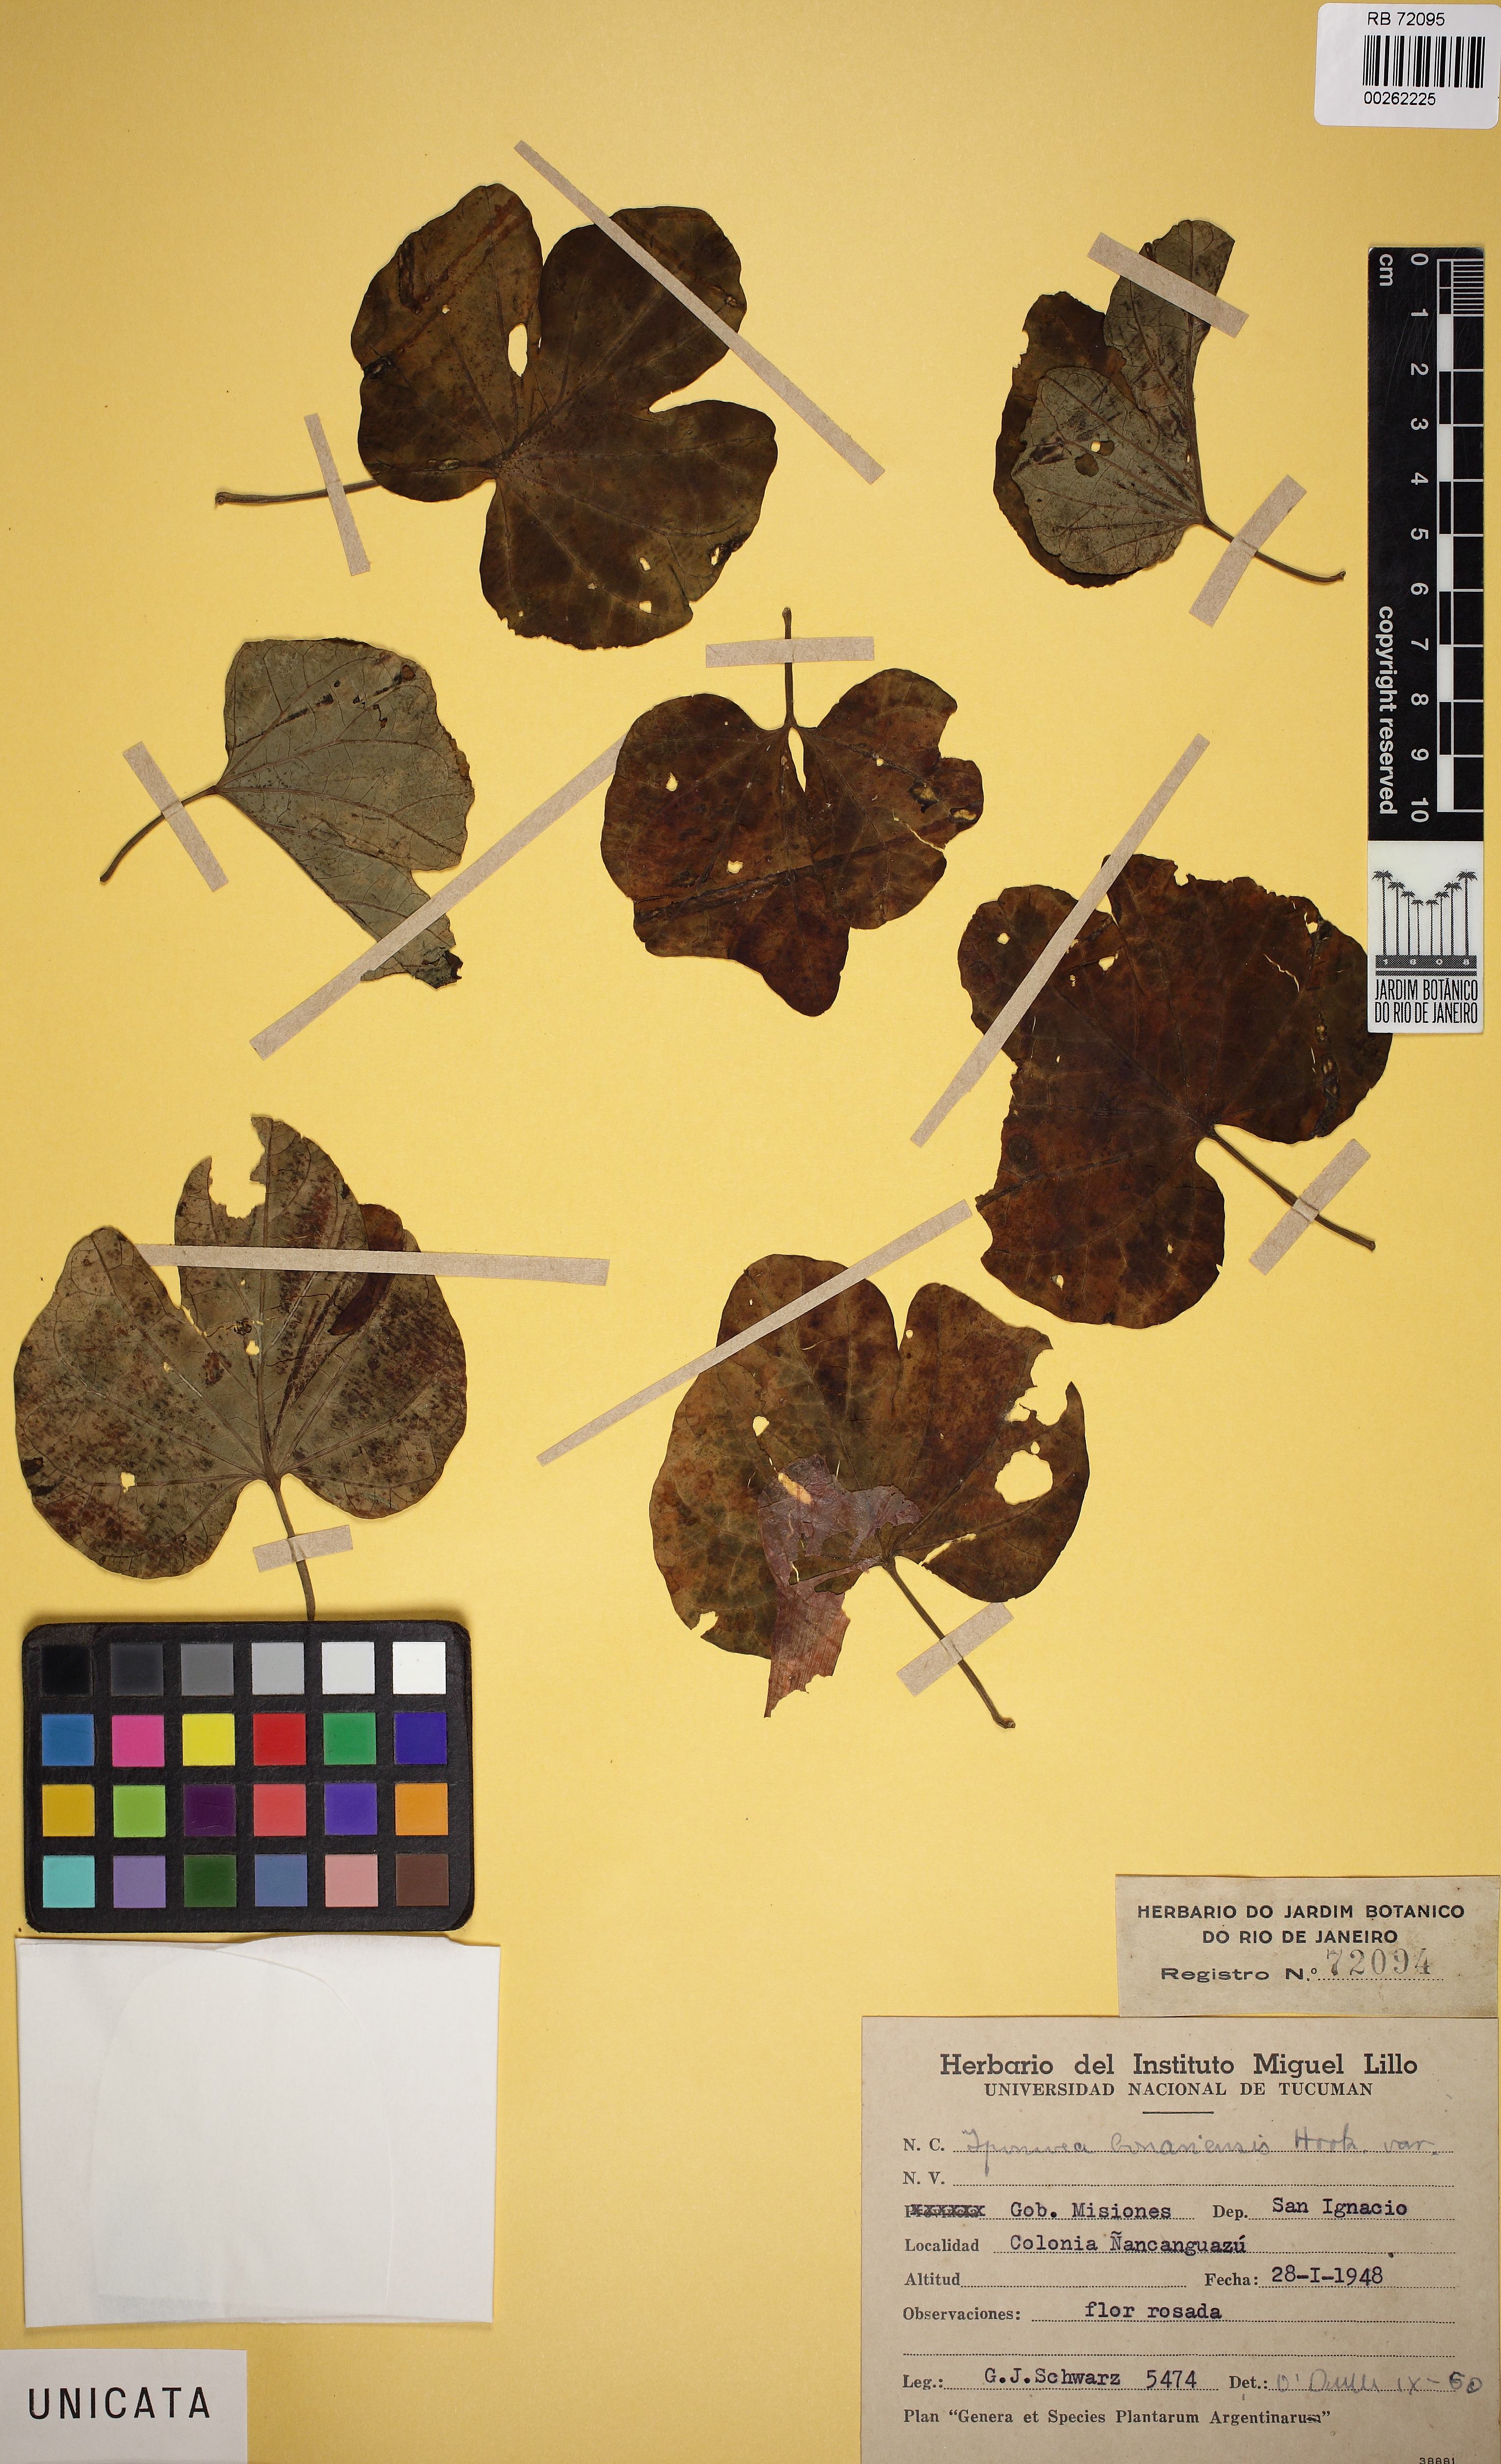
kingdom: Plantae
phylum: Tracheophyta
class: Magnoliopsida
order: Solanales
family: Convolvulaceae
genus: Ipomoea
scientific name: Ipomoea bonariensis
